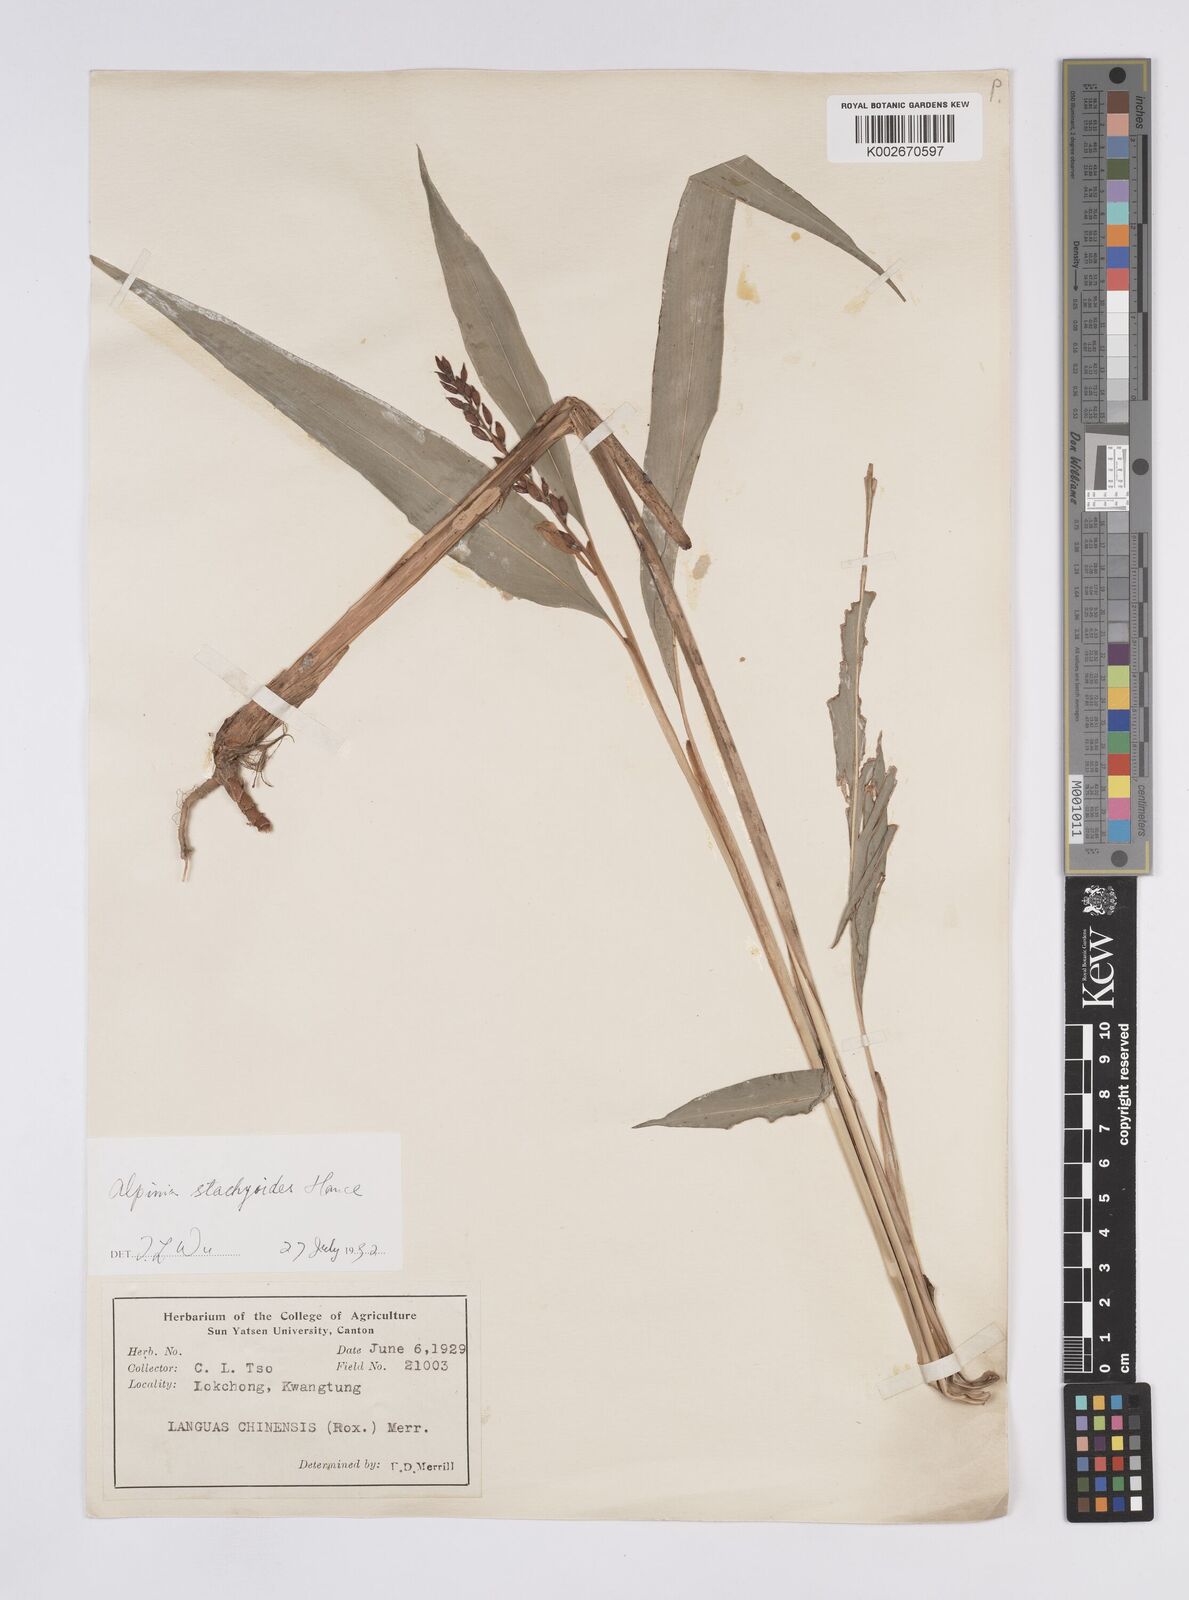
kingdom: Plantae
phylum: Tracheophyta
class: Liliopsida
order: Zingiberales
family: Zingiberaceae
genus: Alpinia
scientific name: Alpinia stachyodes
